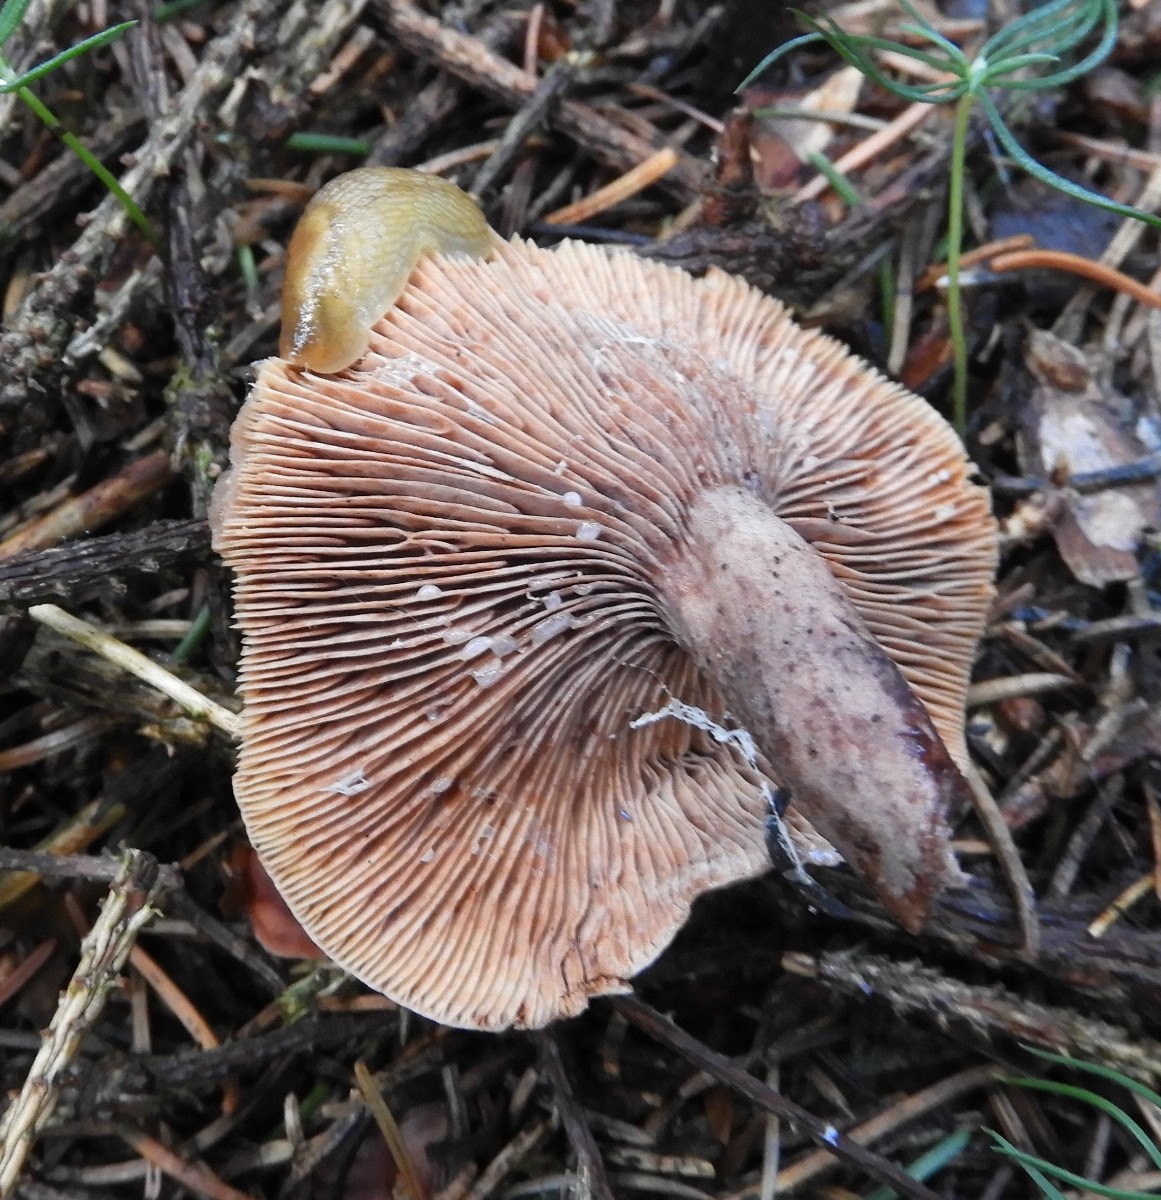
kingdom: Fungi
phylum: Basidiomycota
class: Agaricomycetes
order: Russulales
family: Russulaceae
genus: Lactarius
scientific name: Lactarius rufus
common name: rødbrun mælkehat
